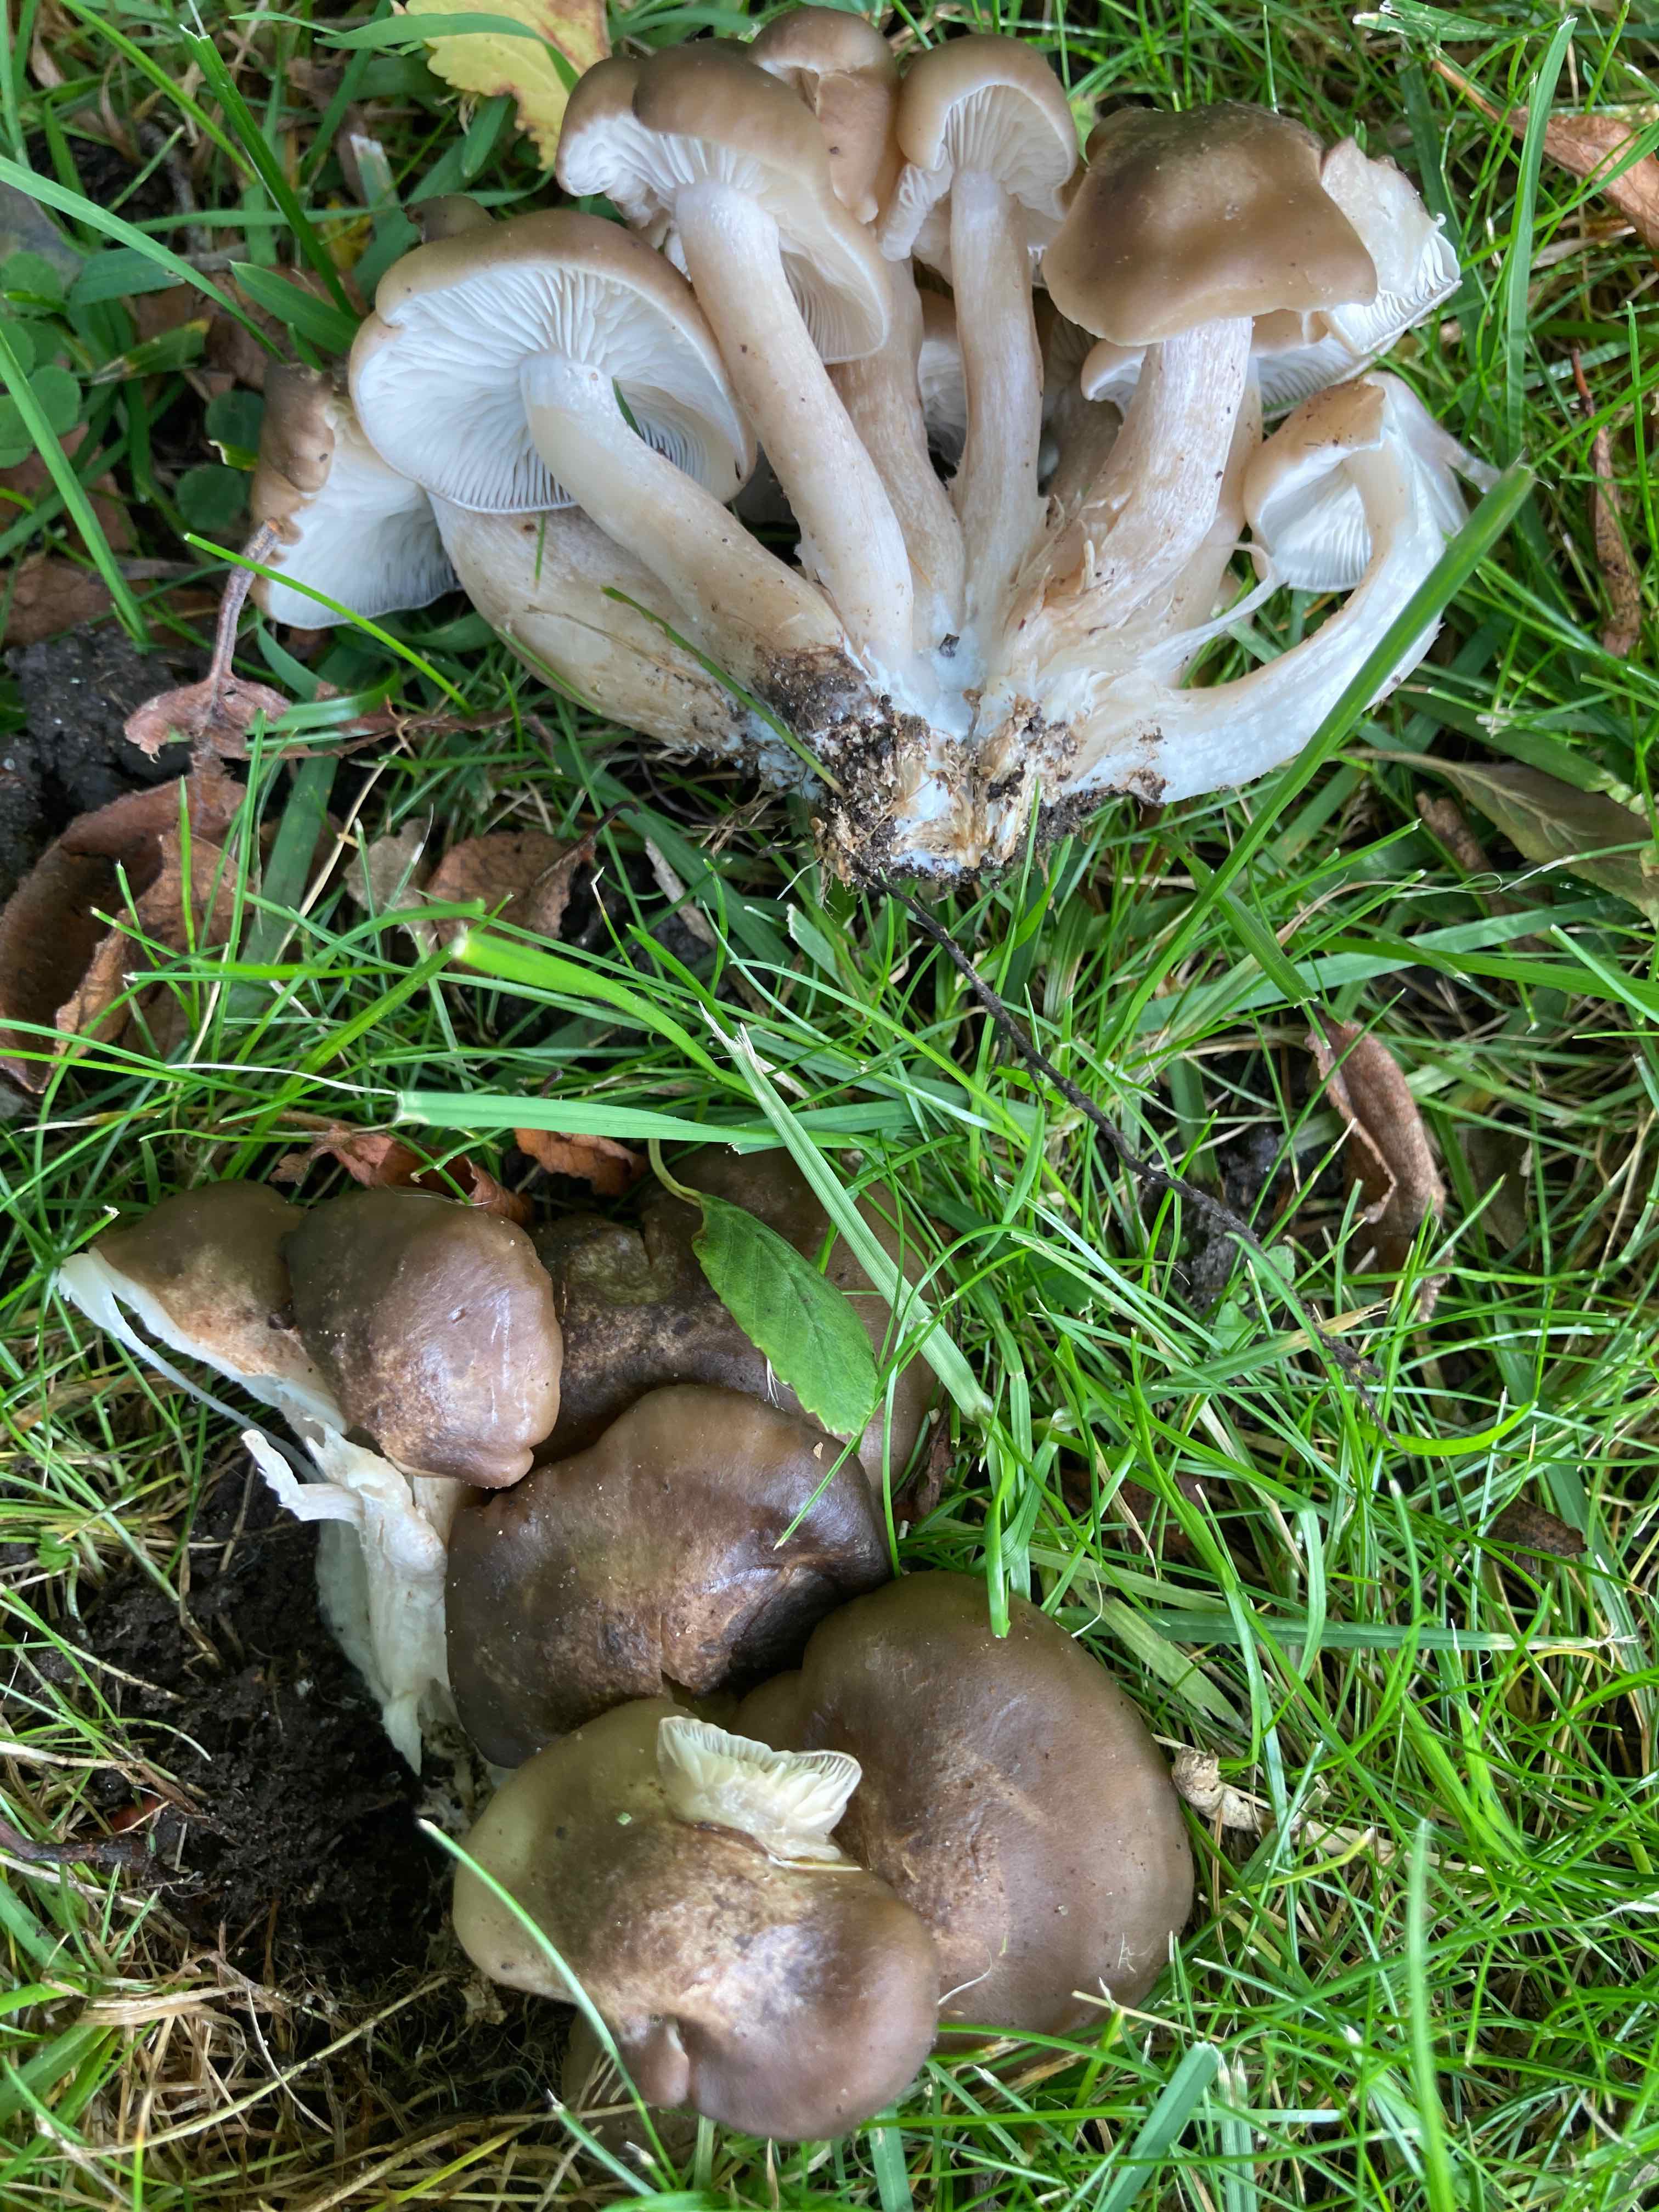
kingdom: Fungi
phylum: Basidiomycota
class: Agaricomycetes
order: Agaricales
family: Lyophyllaceae
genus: Lyophyllum
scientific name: Lyophyllum decastes
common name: røggrå gråblad
